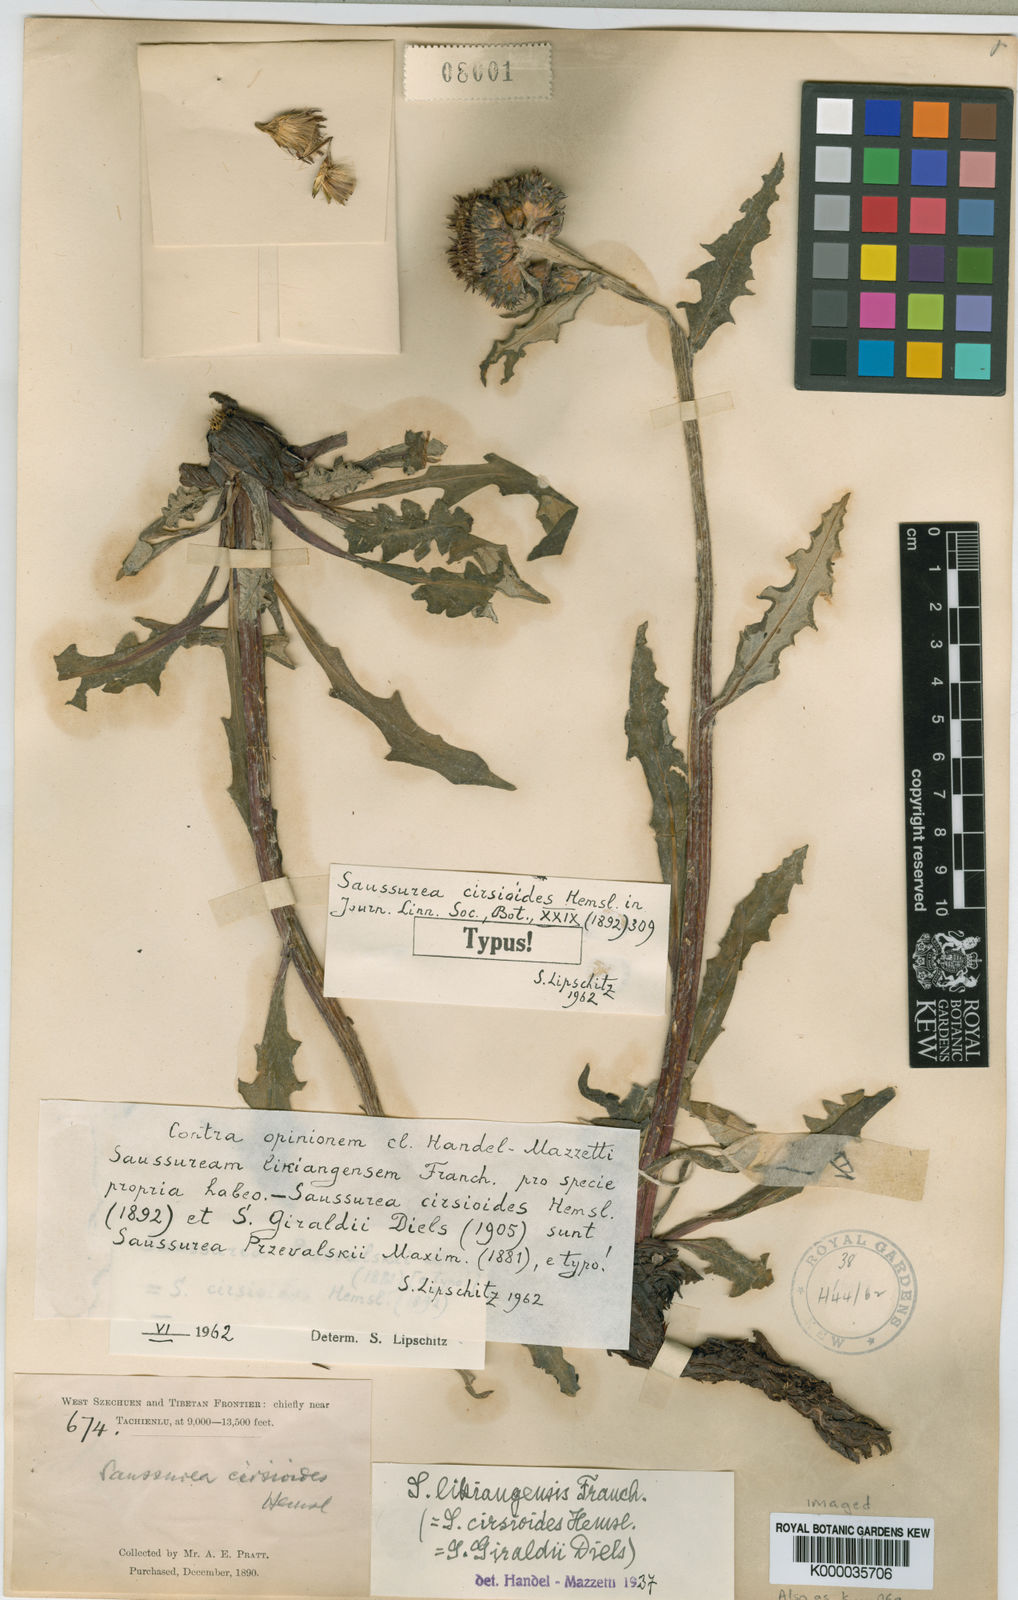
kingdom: Plantae
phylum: Tracheophyta
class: Magnoliopsida
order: Asterales
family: Asteraceae
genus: Saussurea
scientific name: Saussurea przewalskii
